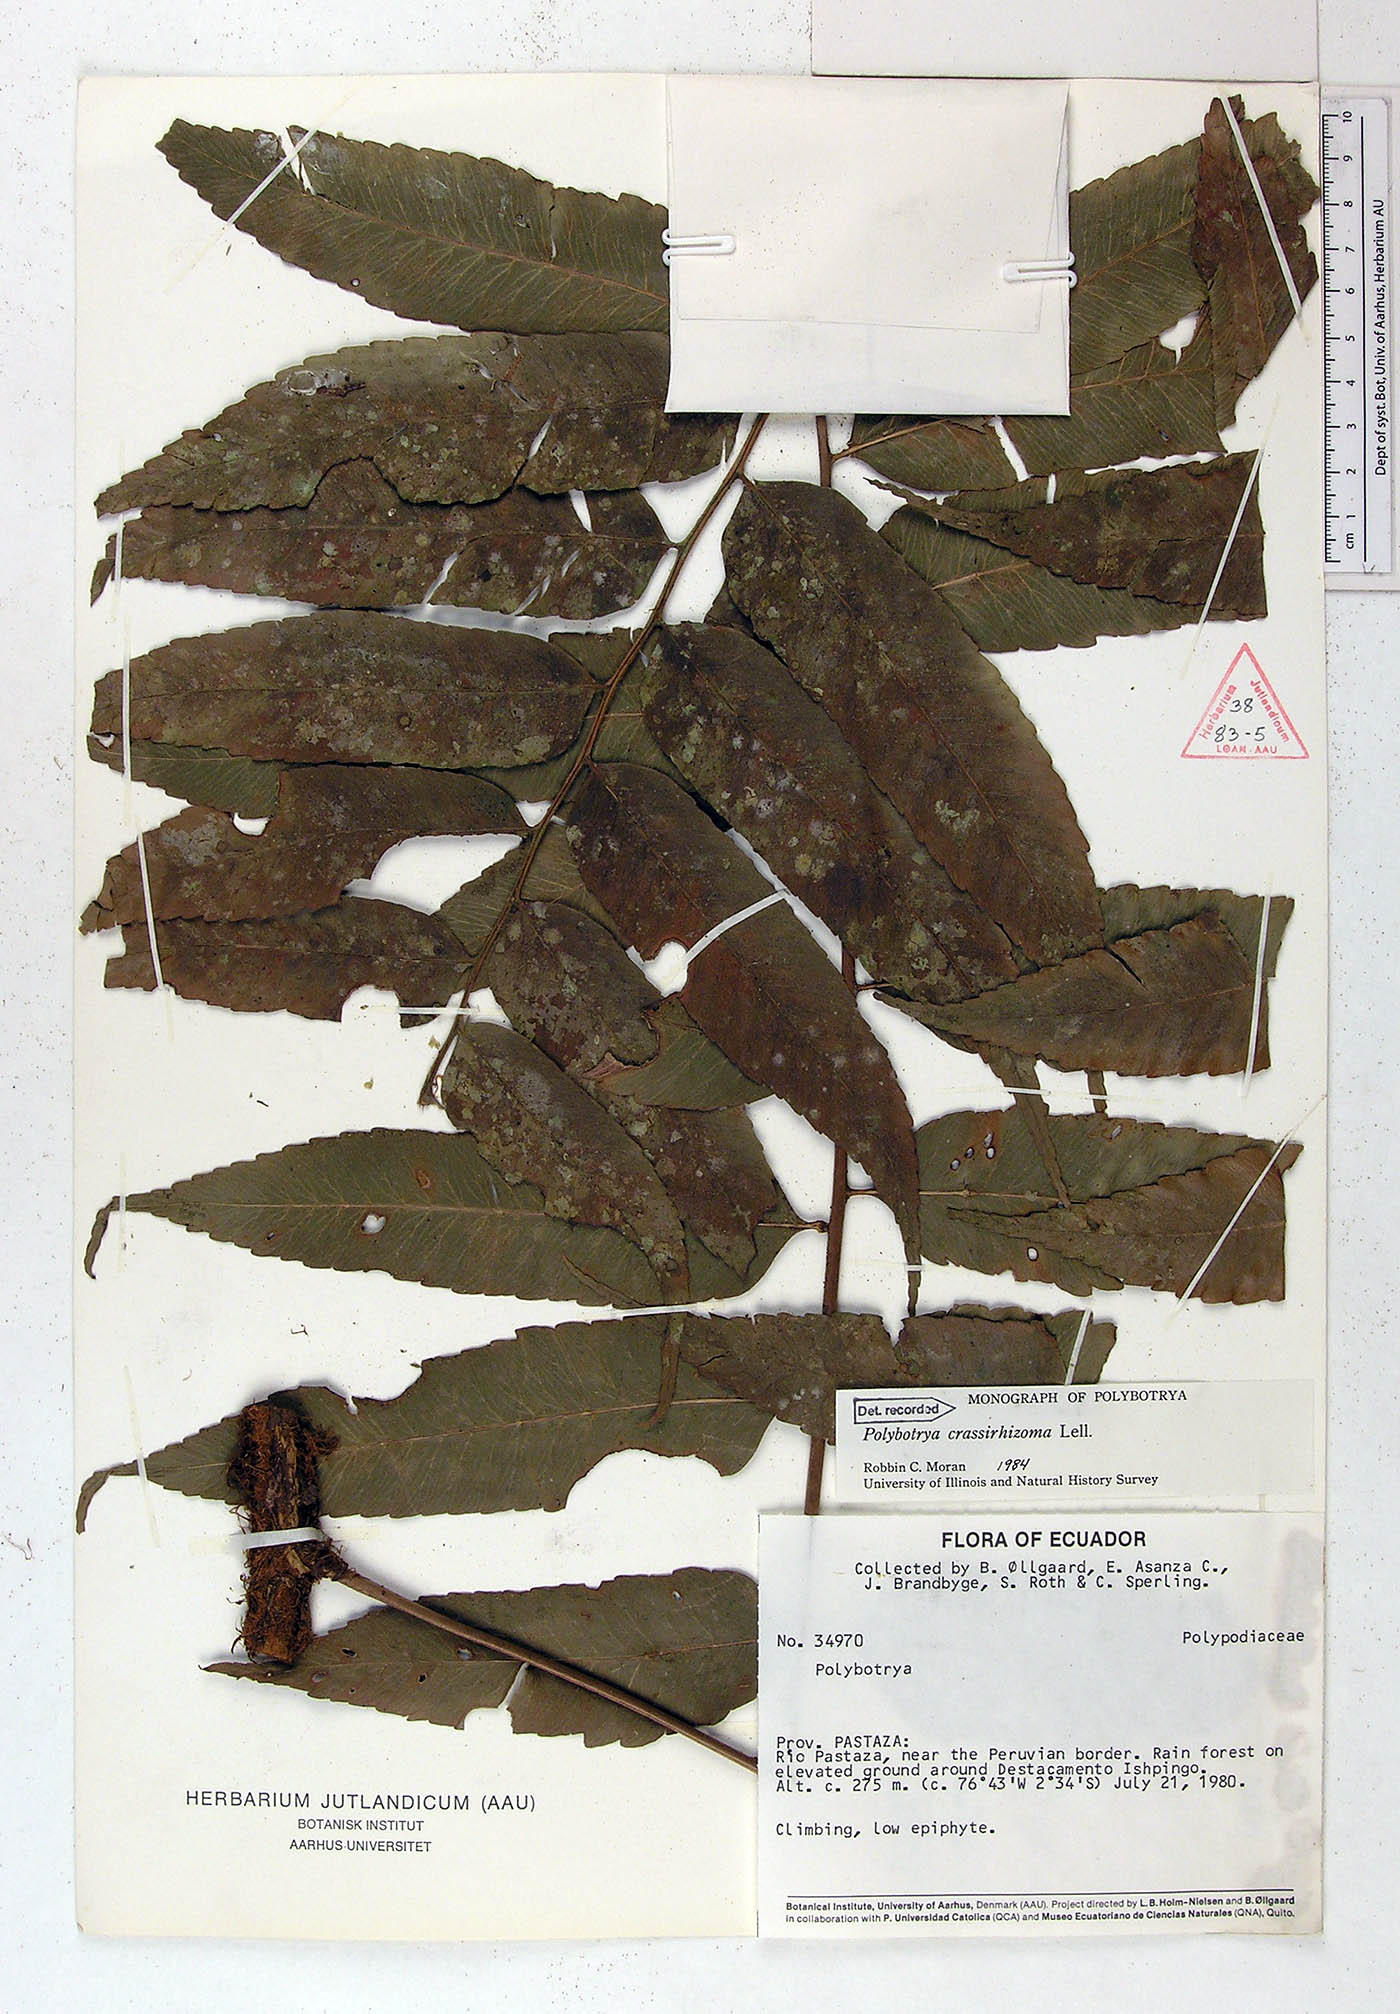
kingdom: Plantae
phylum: Tracheophyta
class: Polypodiopsida
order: Polypodiales
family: Dryopteridaceae
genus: Polybotrya
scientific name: Polybotrya crassirhizoma
